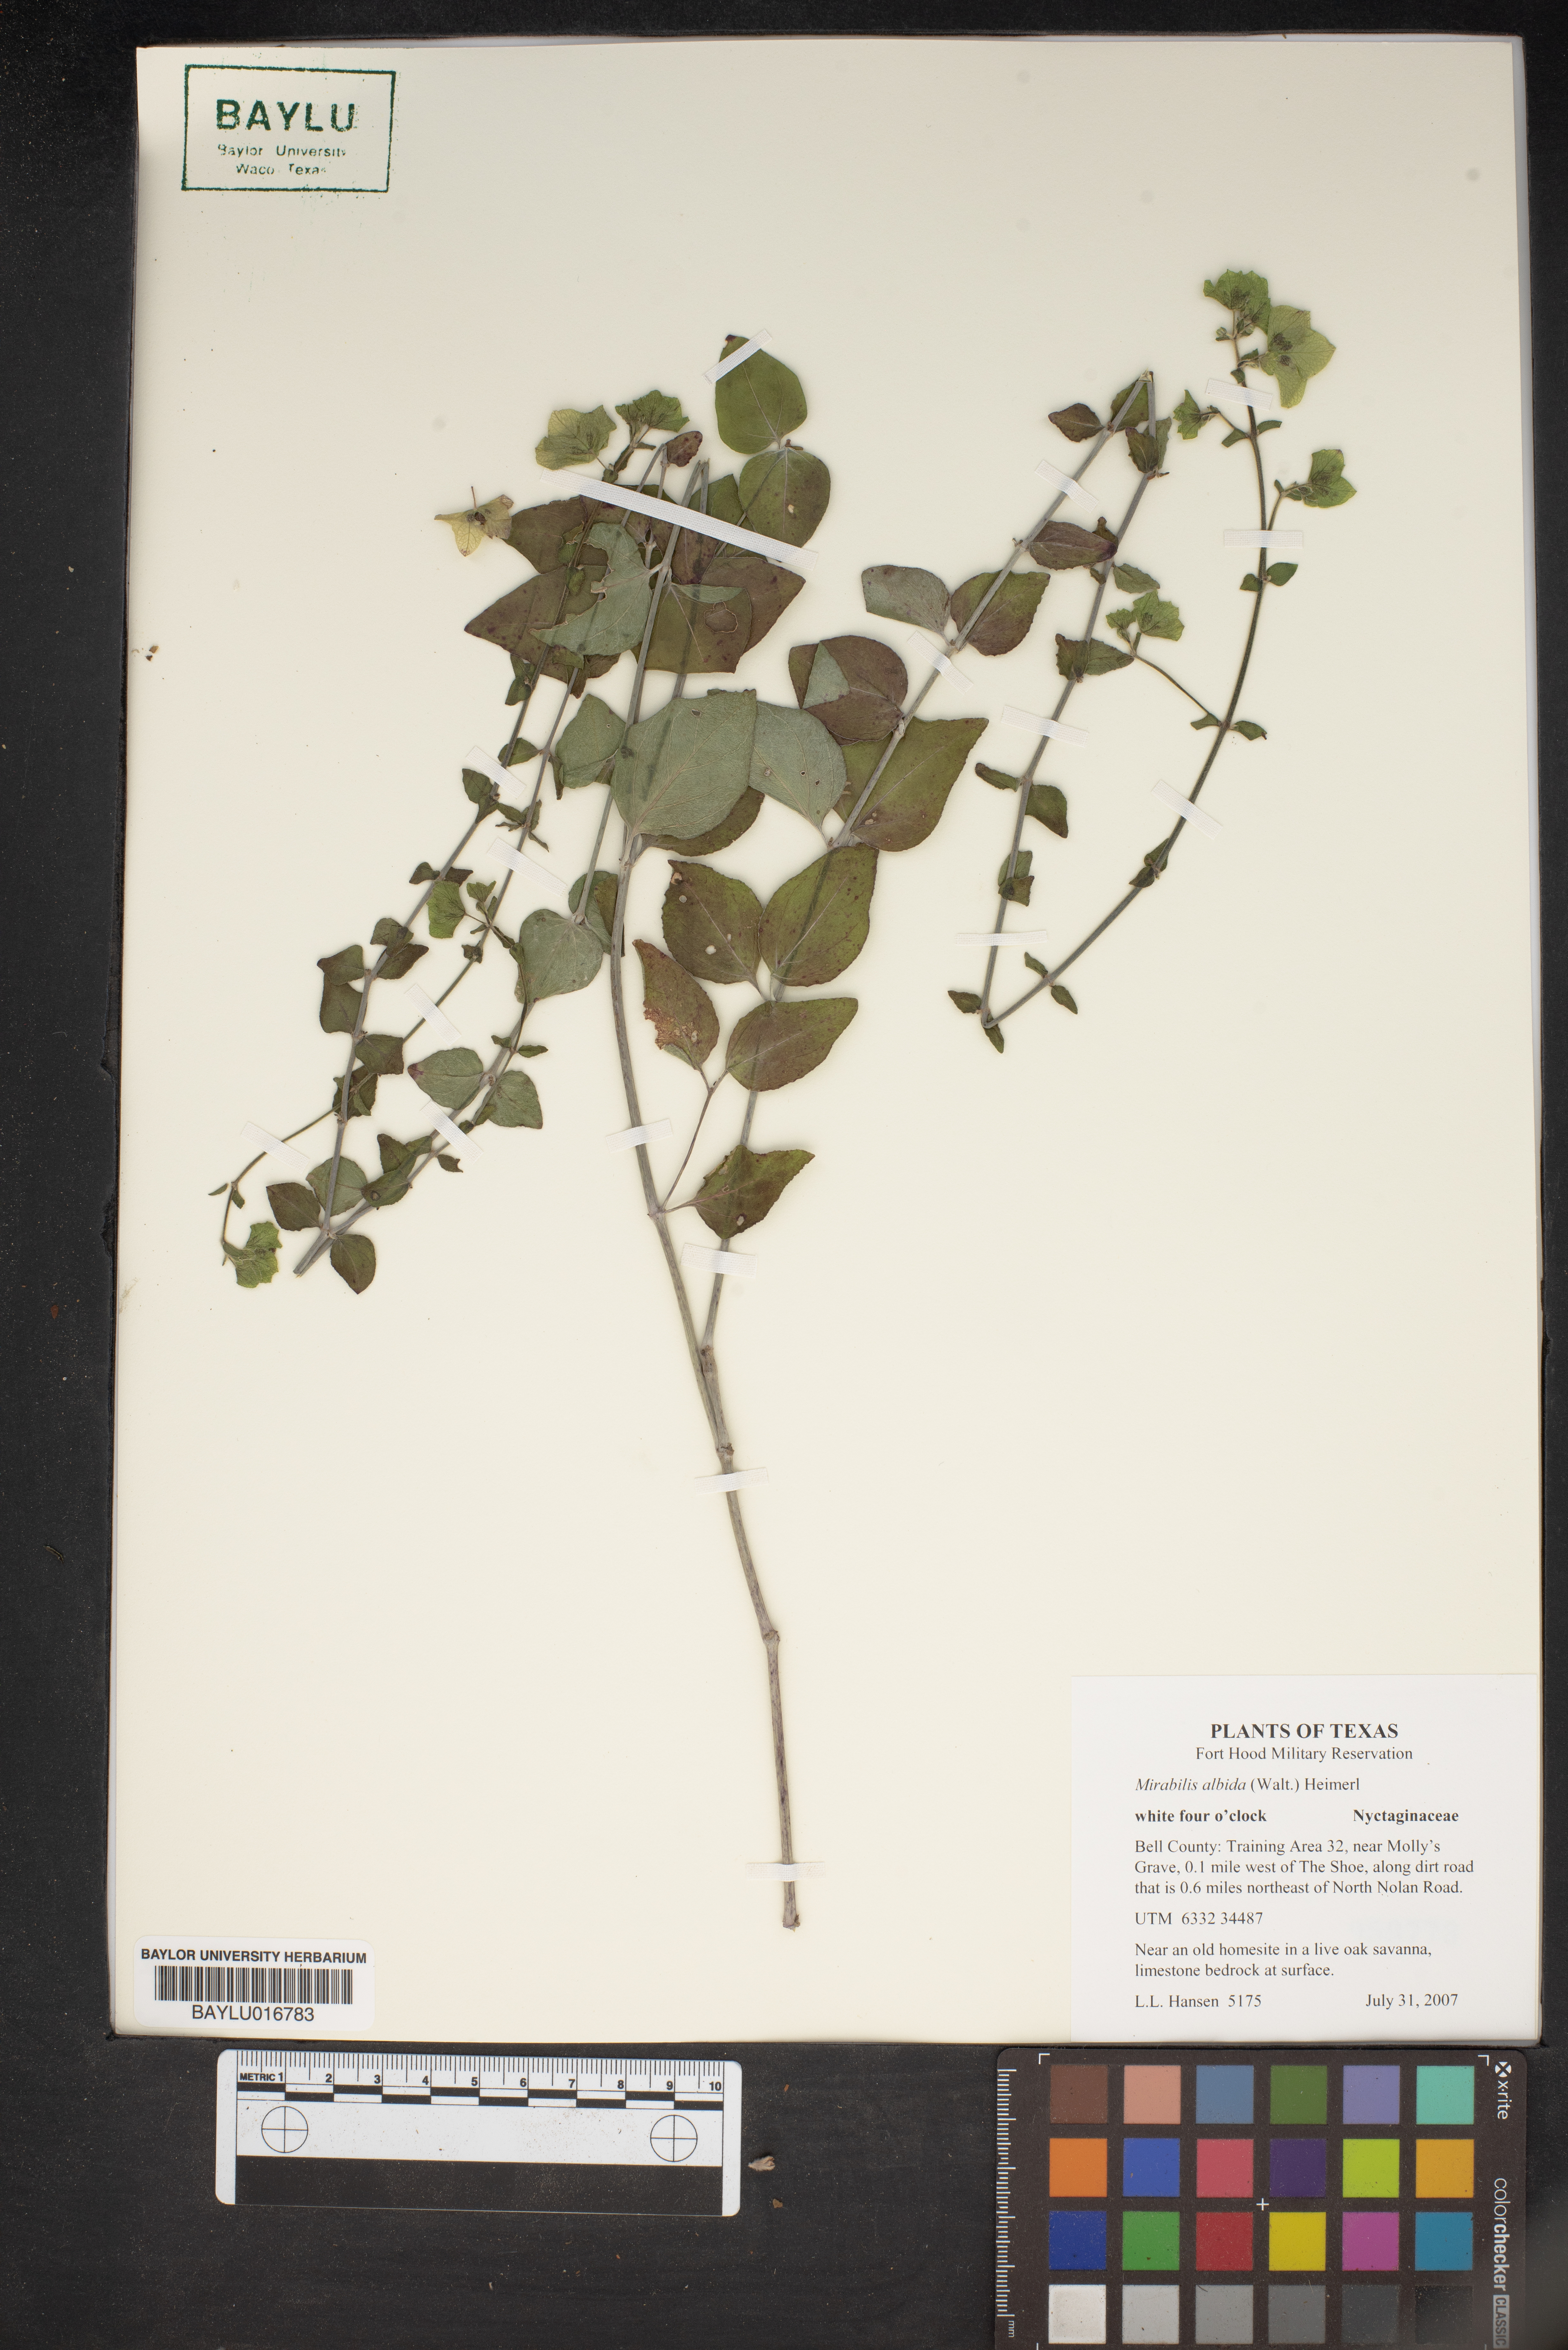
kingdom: Plantae
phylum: Tracheophyta
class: Magnoliopsida
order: Caryophyllales
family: Nyctaginaceae
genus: Mirabilis
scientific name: Mirabilis albida
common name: Hairy four-o'clock
